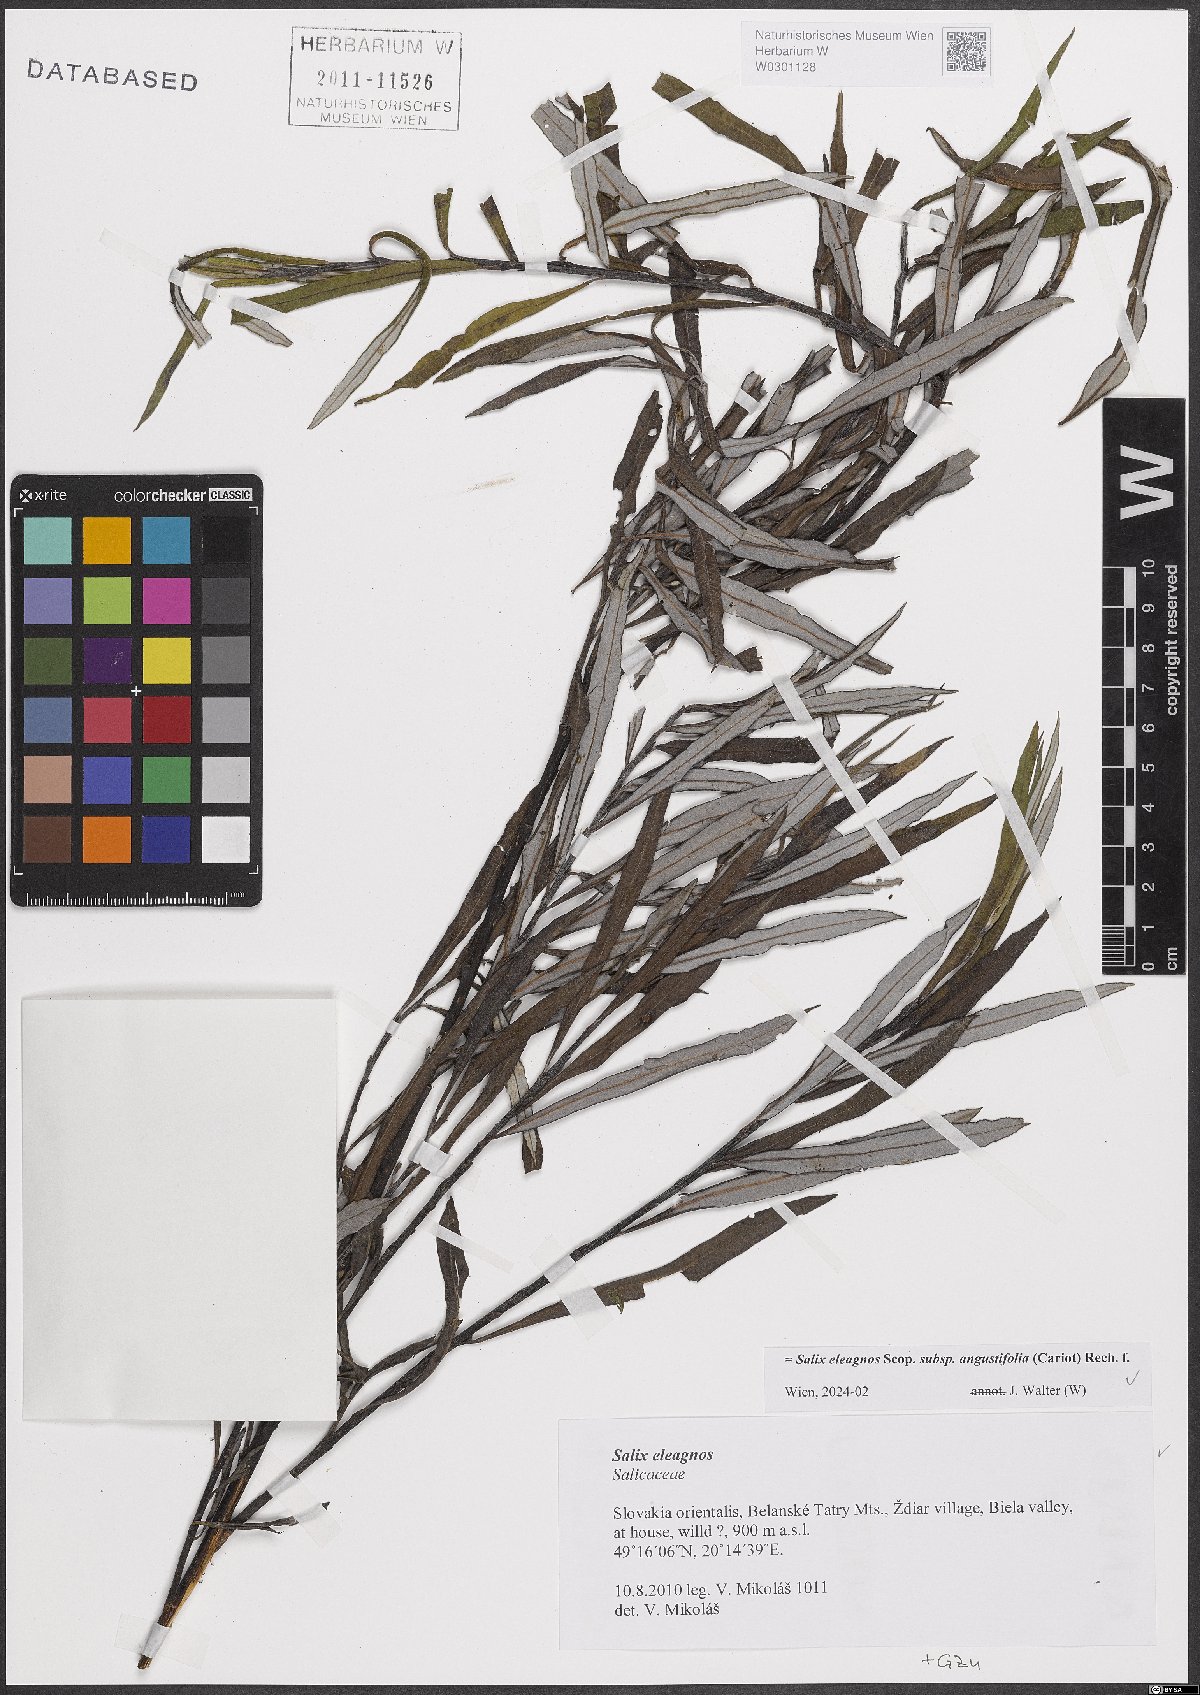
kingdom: Plantae
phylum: Tracheophyta
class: Magnoliopsida
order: Malpighiales
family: Salicaceae
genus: Salix
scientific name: Salix eleagnos
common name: Elaeagnus willow
